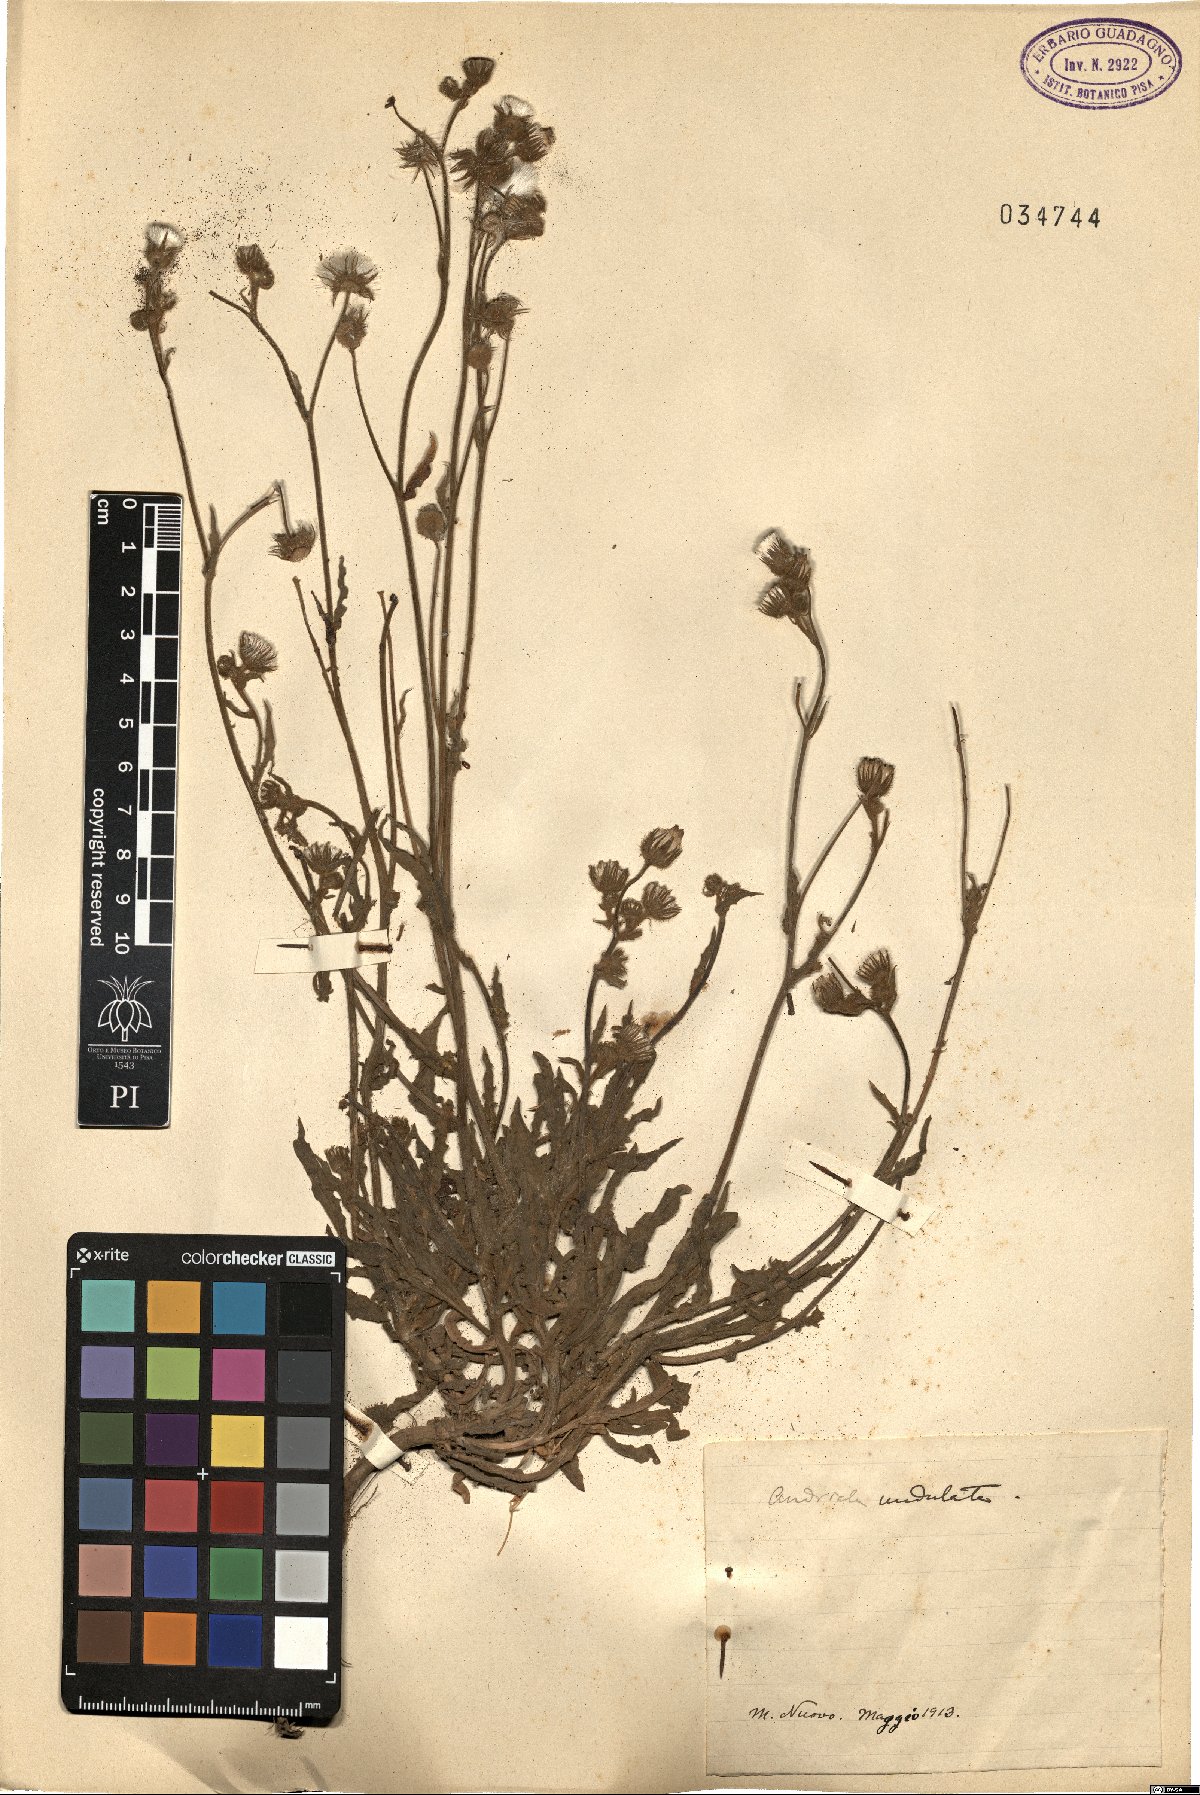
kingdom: Plantae
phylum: Tracheophyta
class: Magnoliopsida
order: Asterales
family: Asteraceae
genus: Andryala
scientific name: Andryala integrifolia
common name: Common andryala
